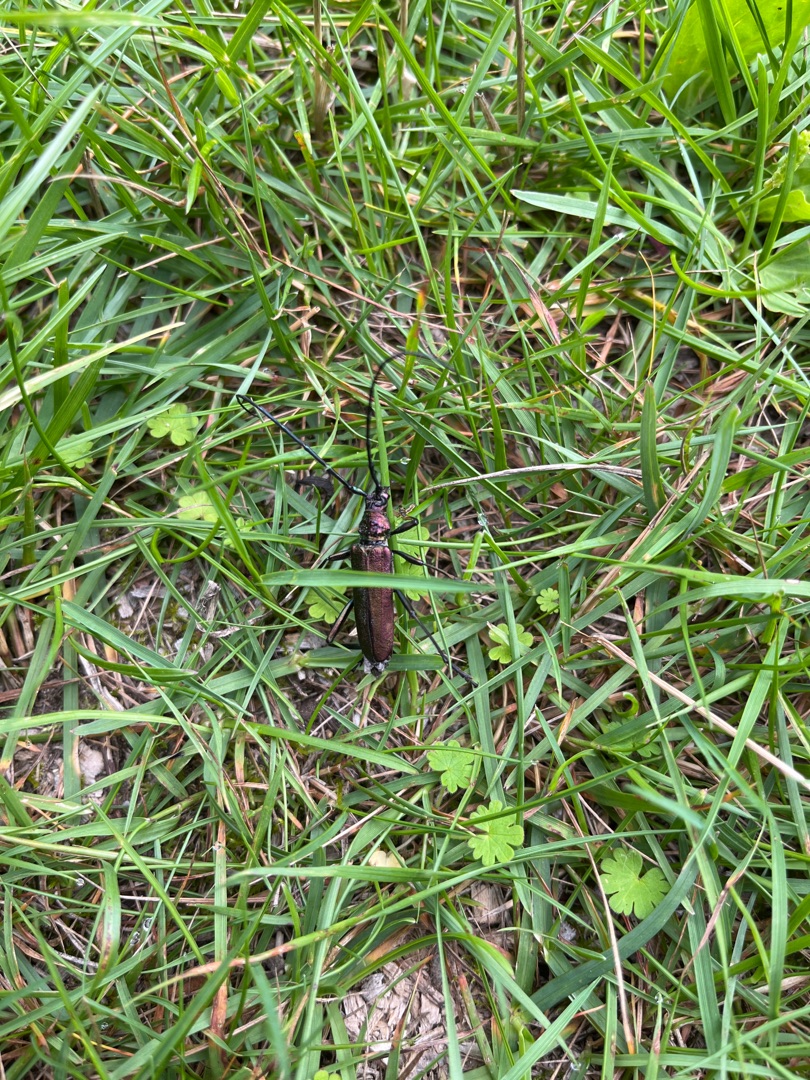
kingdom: Animalia
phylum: Arthropoda
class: Insecta
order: Coleoptera
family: Cerambycidae
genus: Aromia
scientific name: Aromia moschata
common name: Moskusbuk
